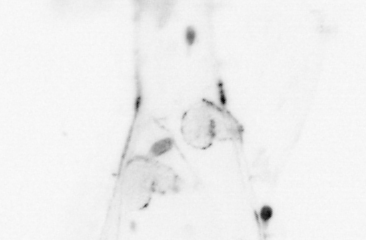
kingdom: Animalia
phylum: Arthropoda
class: Malacostraca
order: Decapoda
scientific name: Decapoda
